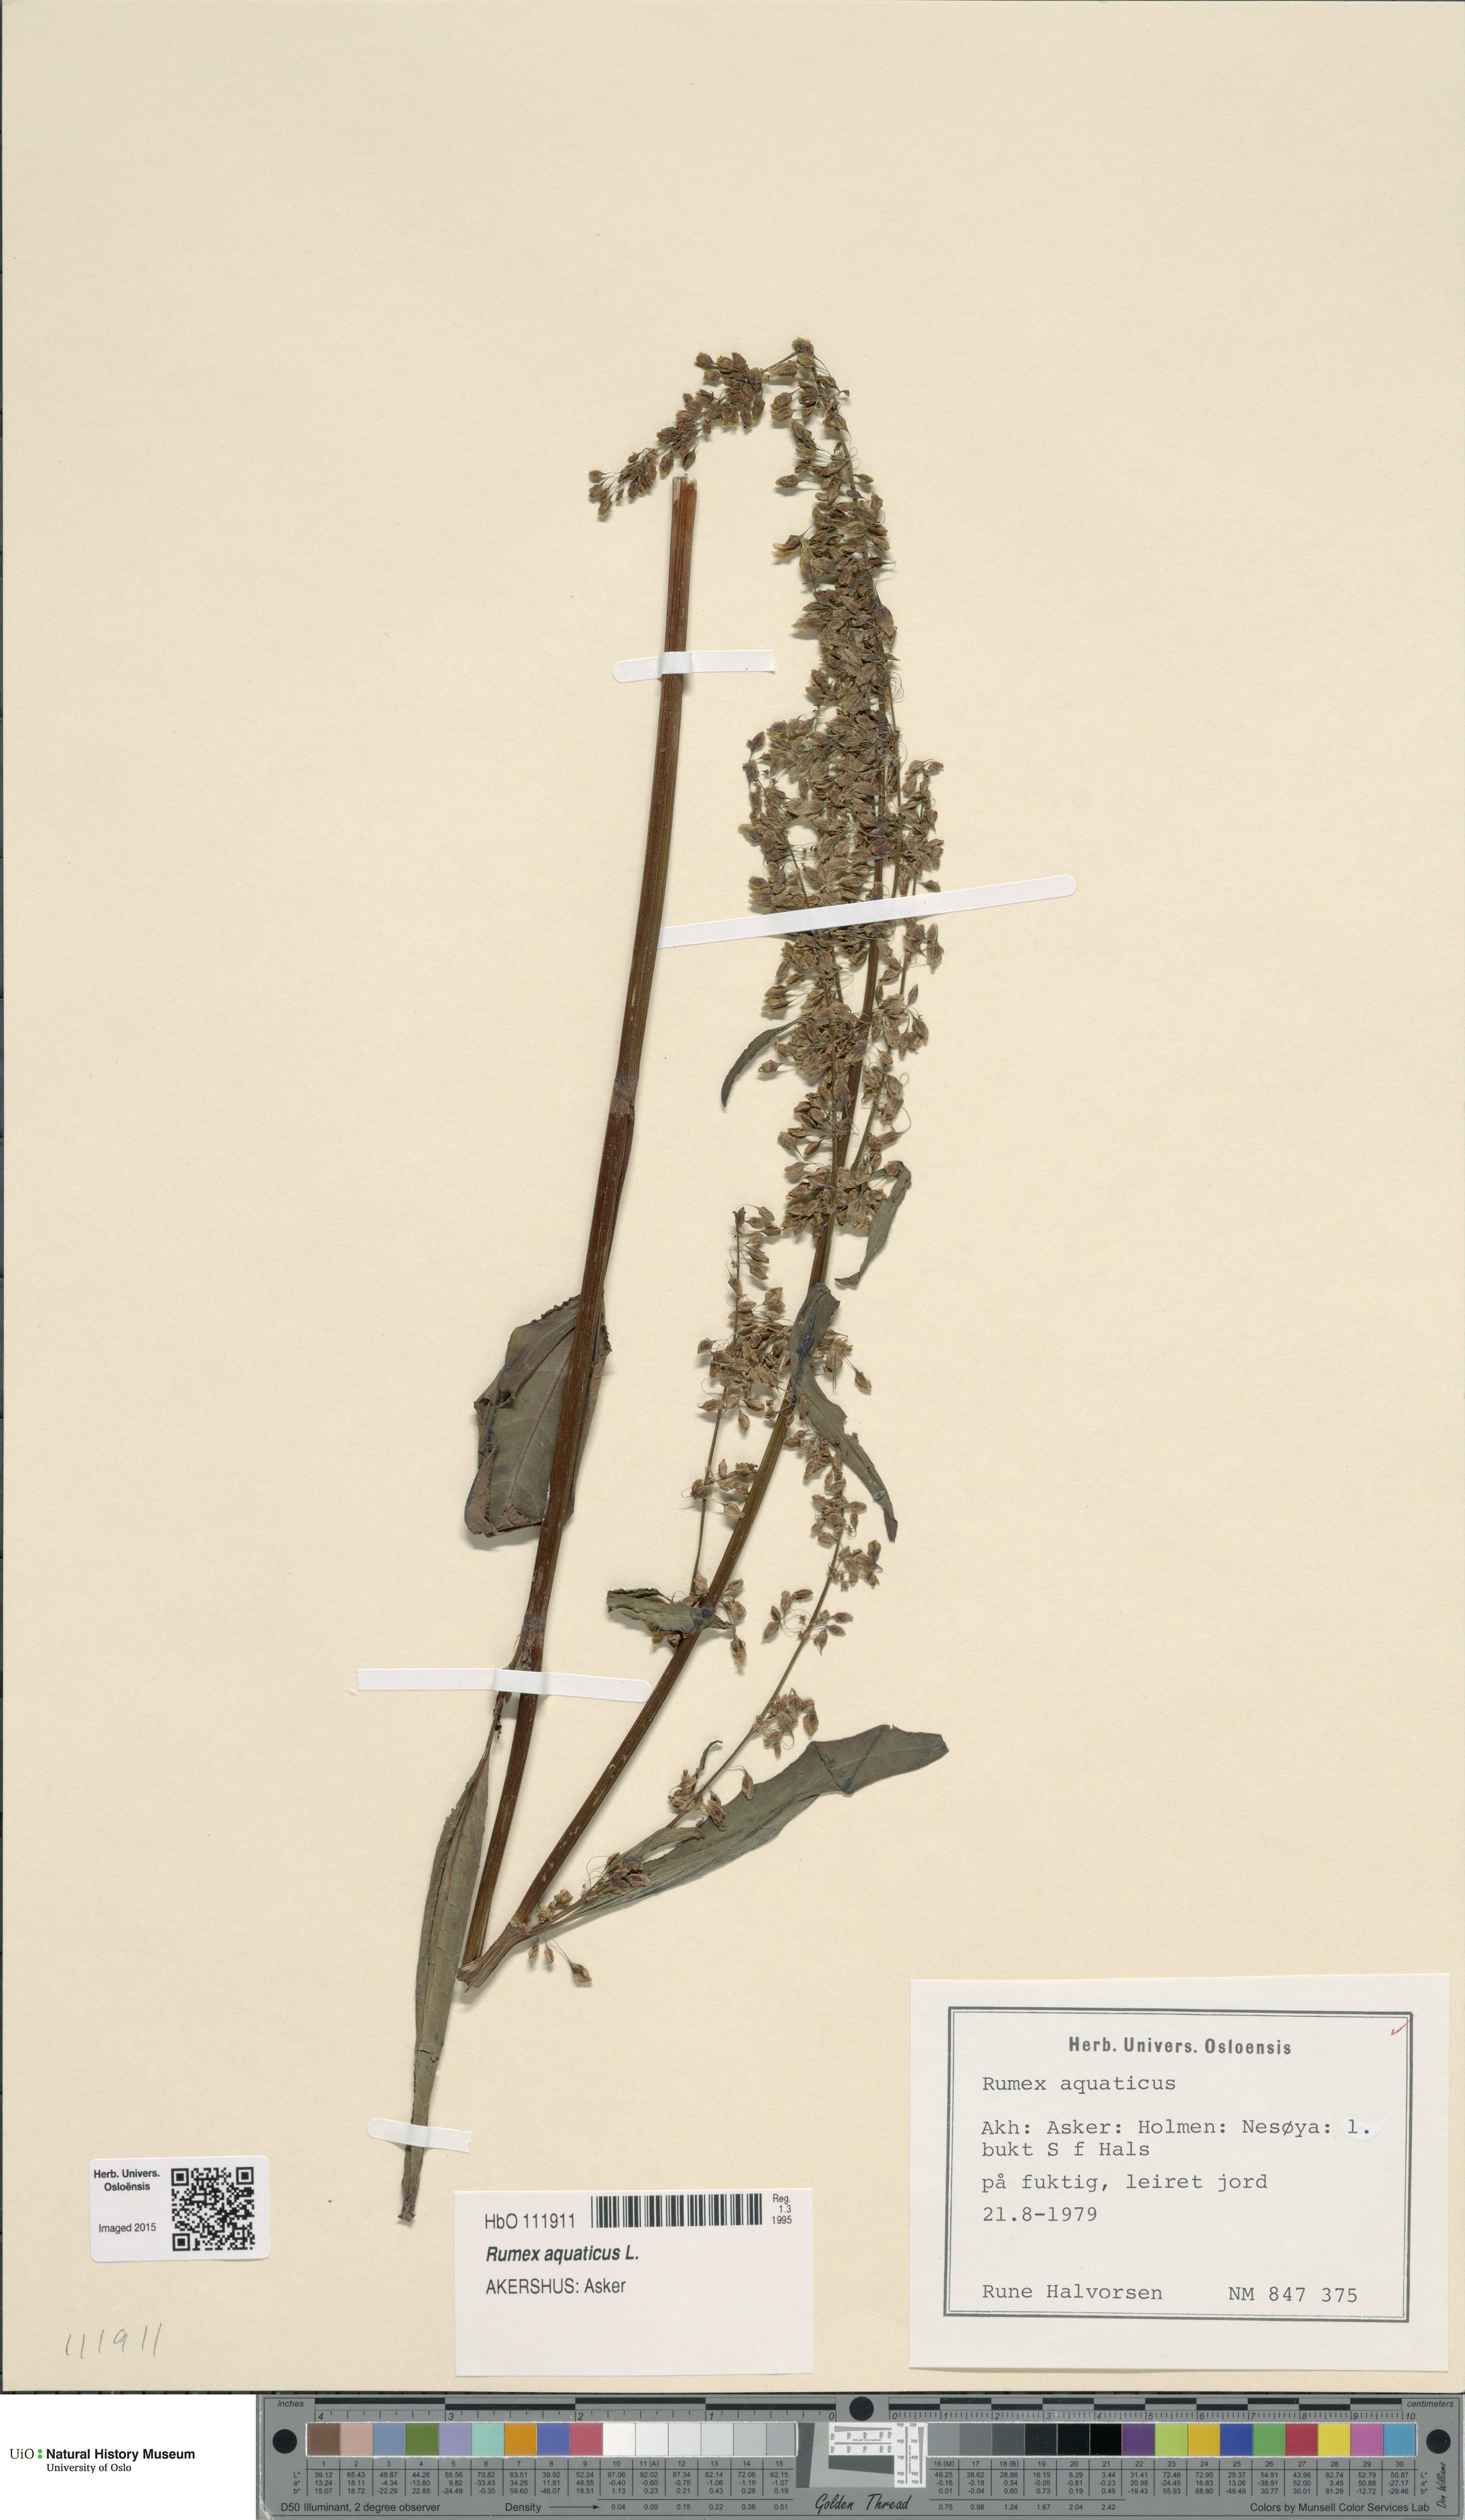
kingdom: Plantae
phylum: Tracheophyta
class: Magnoliopsida
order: Caryophyllales
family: Polygonaceae
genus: Rumex
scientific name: Rumex aquaticus
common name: Scottish dock
